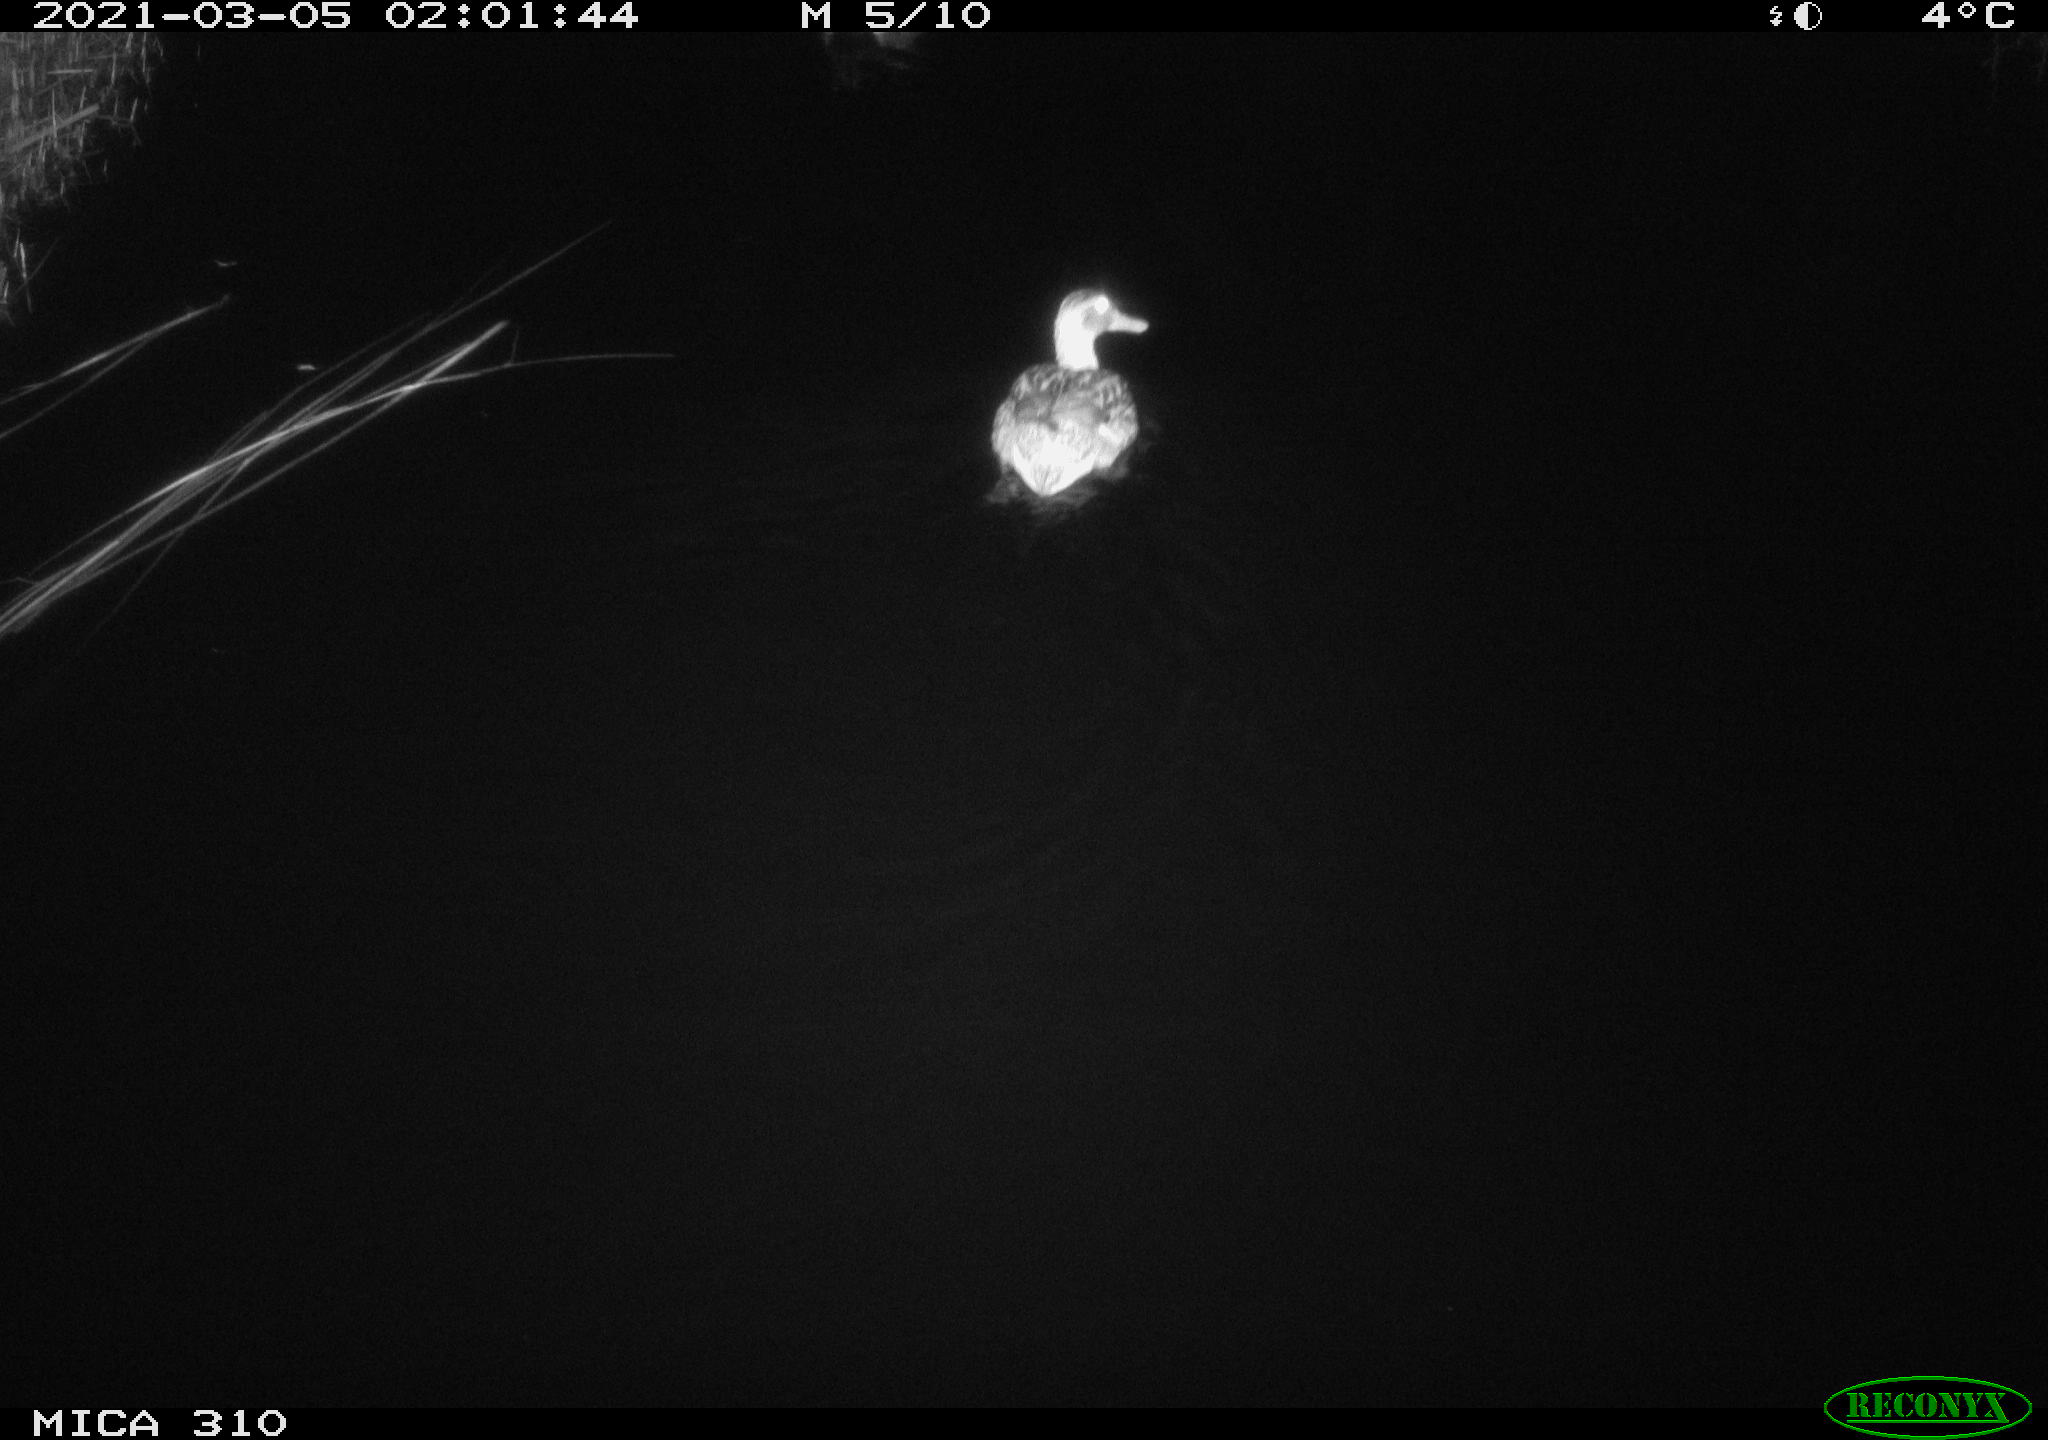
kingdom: Animalia
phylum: Chordata
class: Aves
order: Anseriformes
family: Anatidae
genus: Anas
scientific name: Anas platyrhynchos
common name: Mallard
